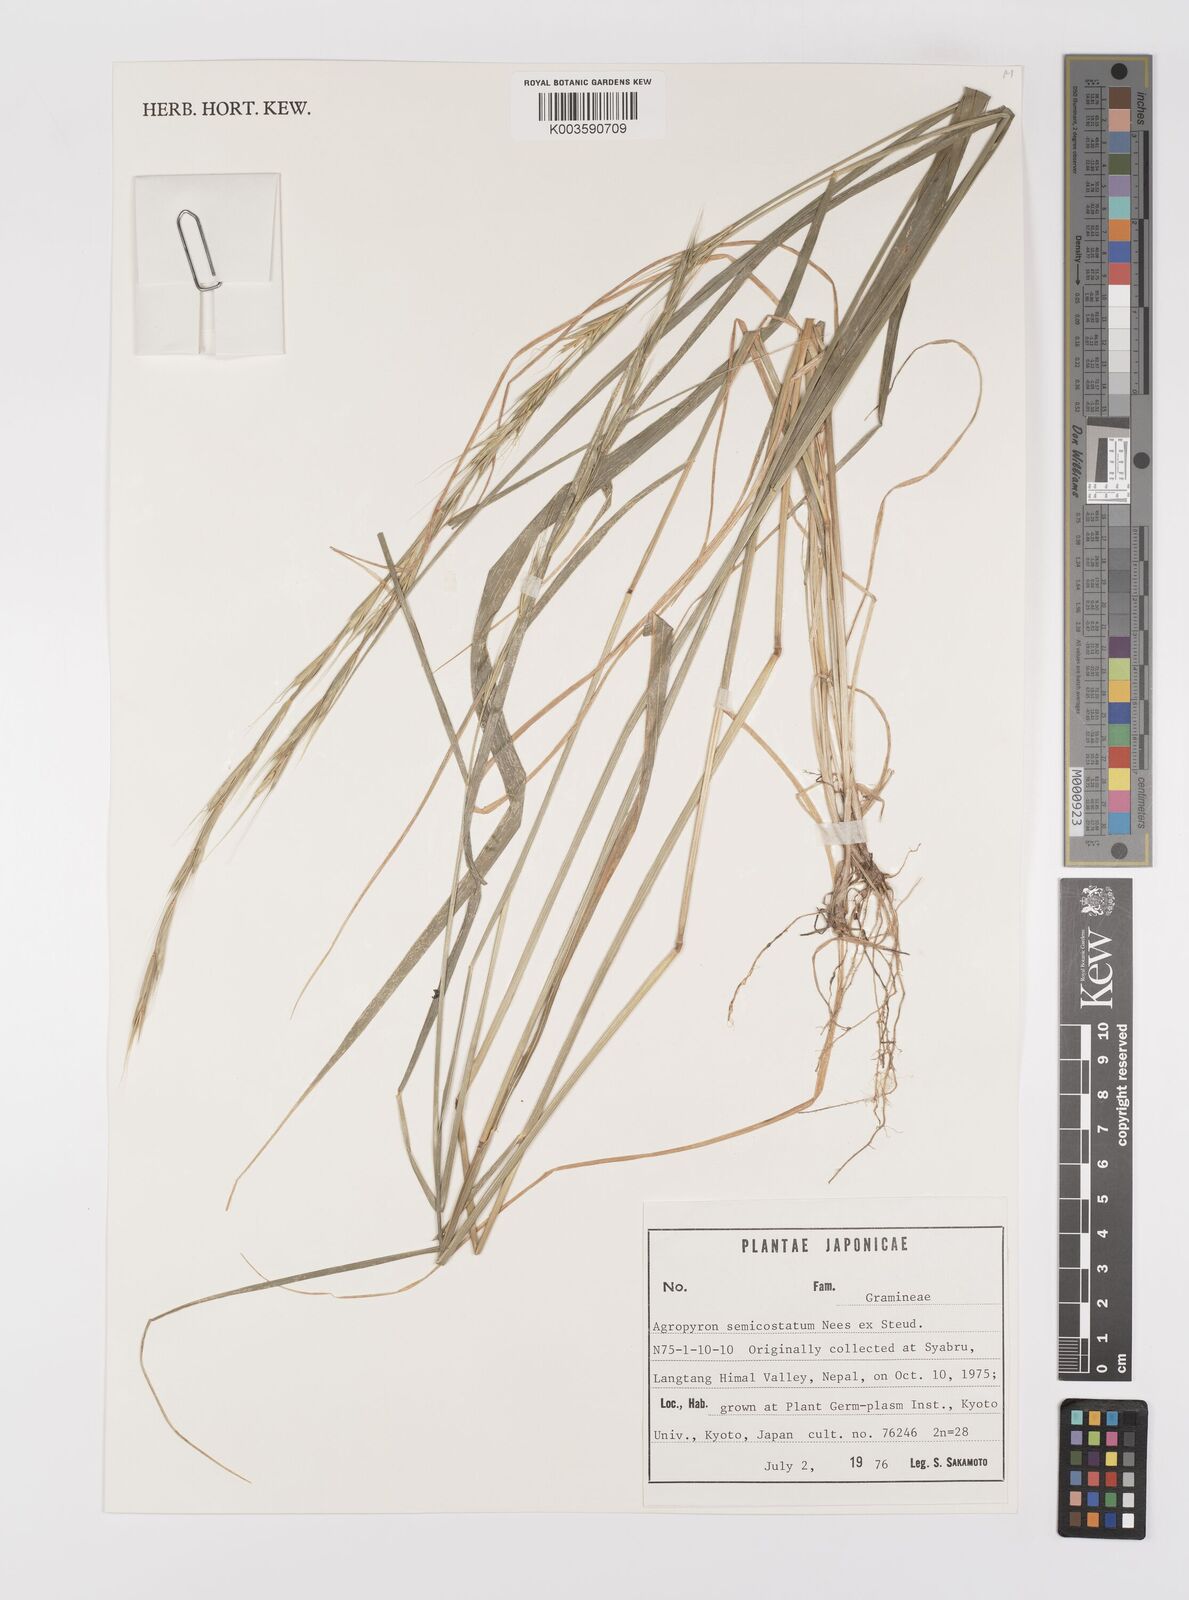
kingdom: Plantae
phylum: Tracheophyta
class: Liliopsida
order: Poales
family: Poaceae
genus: Elymus
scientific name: Elymus semicostatus
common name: Drooping wildrye
